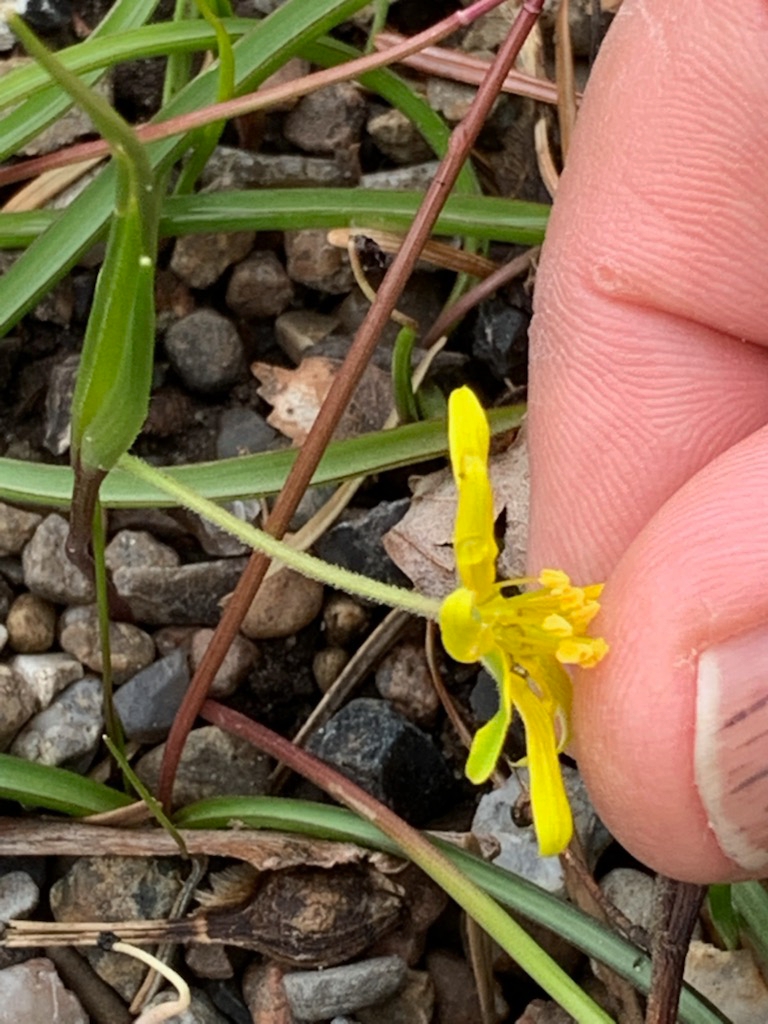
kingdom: Plantae
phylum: Tracheophyta
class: Liliopsida
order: Liliales
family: Liliaceae
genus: Gagea
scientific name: Gagea villosa
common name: Ager-guldstjerne
